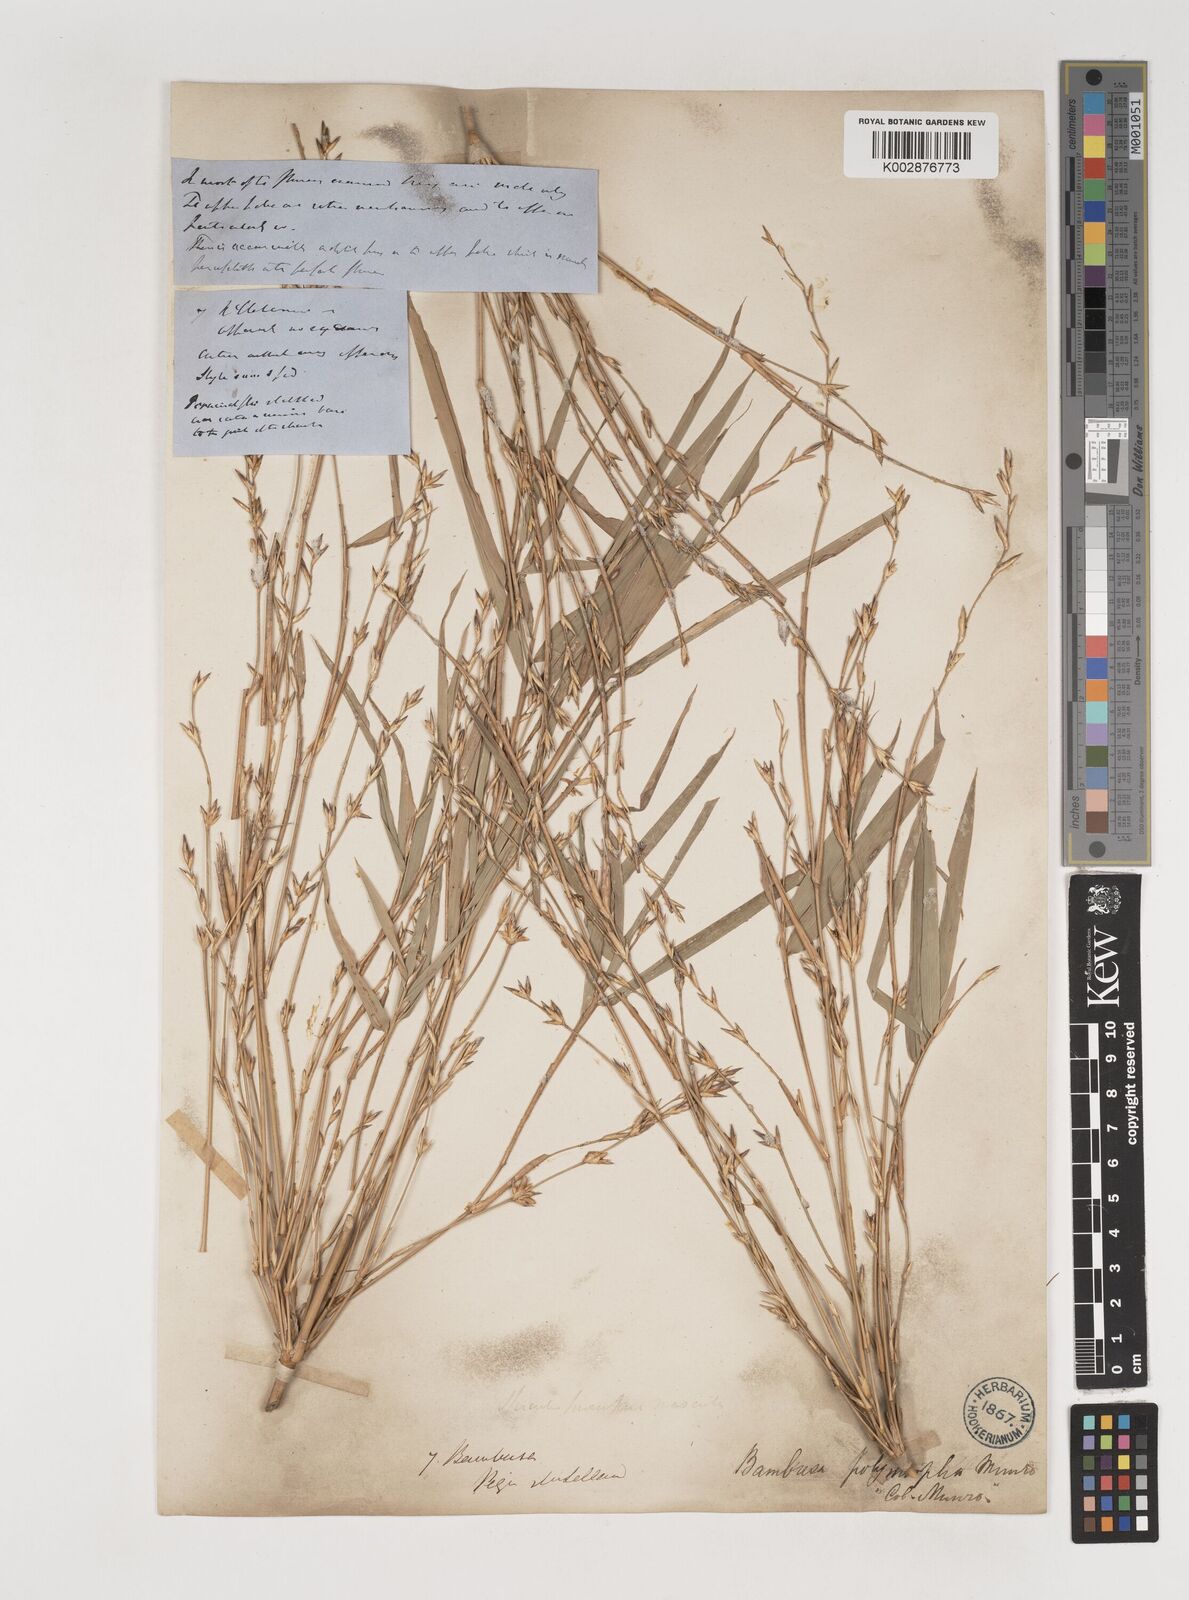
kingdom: Plantae
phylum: Tracheophyta
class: Liliopsida
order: Poales
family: Poaceae
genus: Bambusa
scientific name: Bambusa polymorpha
